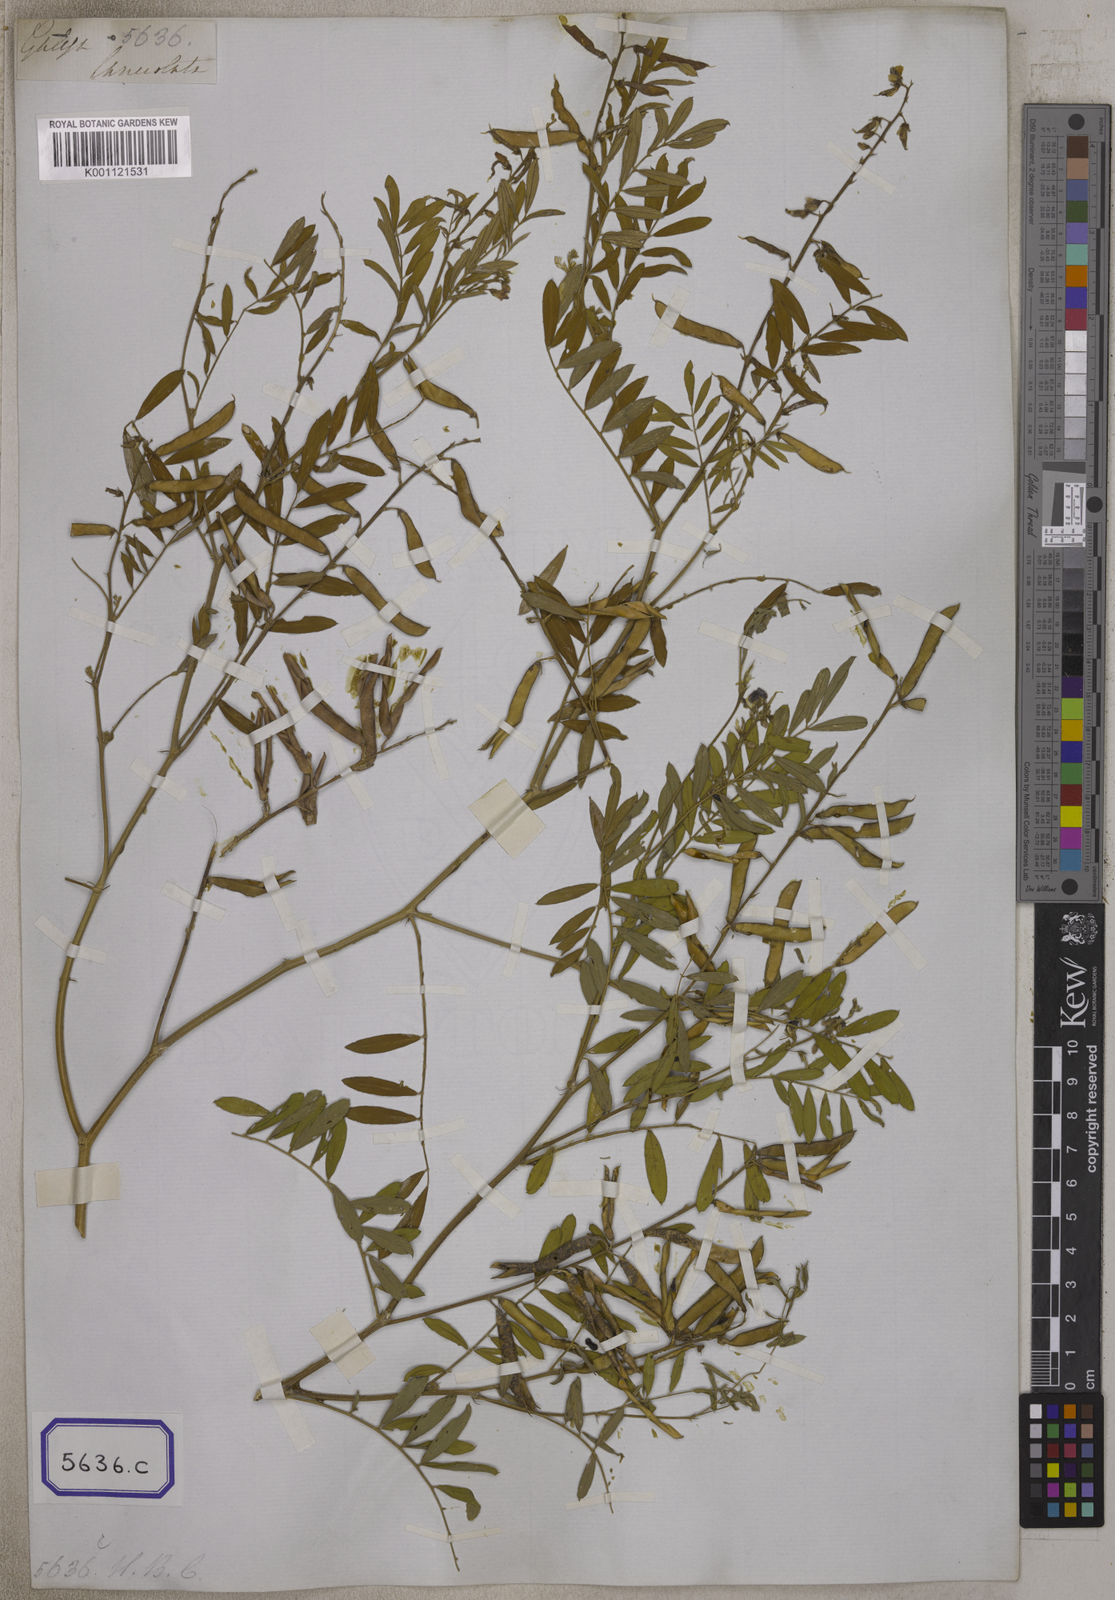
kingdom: Plantae
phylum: Tracheophyta
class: Magnoliopsida
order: Fabales
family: Fabaceae
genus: Tephrosia
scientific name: Tephrosia
